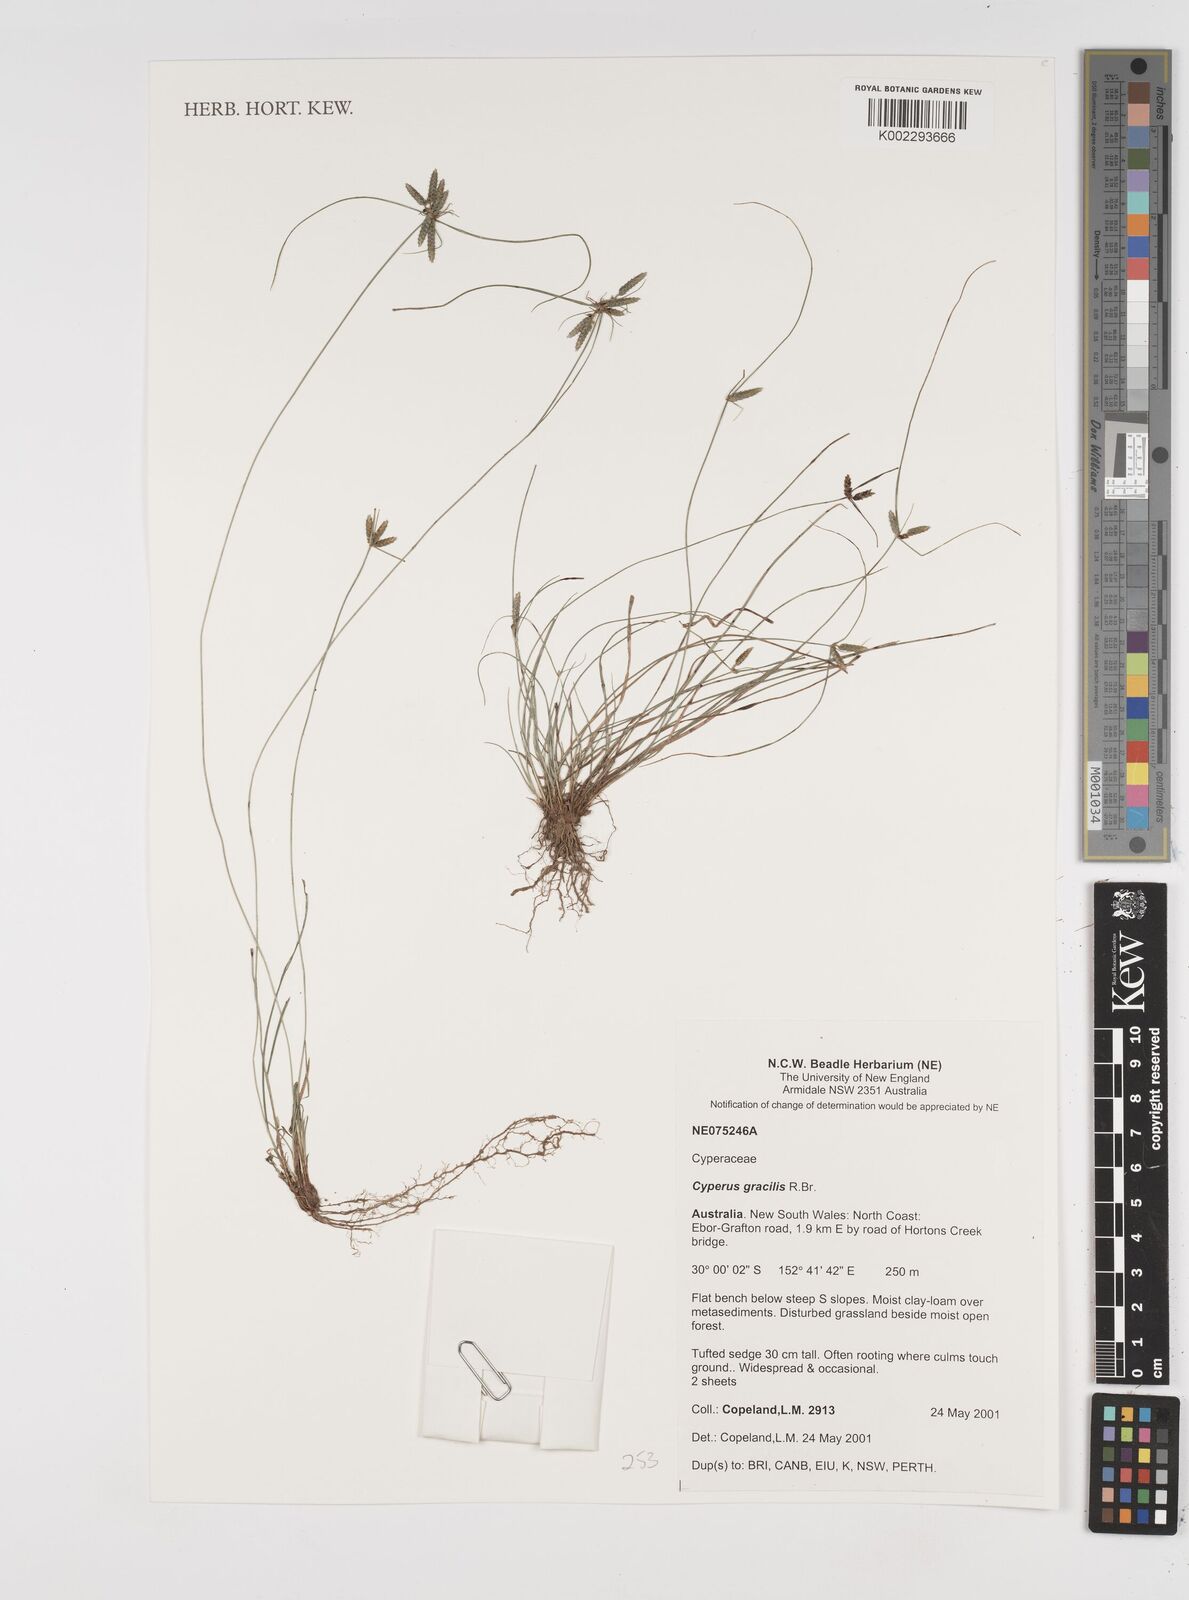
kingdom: Plantae
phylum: Tracheophyta
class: Liliopsida
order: Poales
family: Cyperaceae
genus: Cyperus
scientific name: Cyperus gracilis
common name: Slimjim flatsedge
